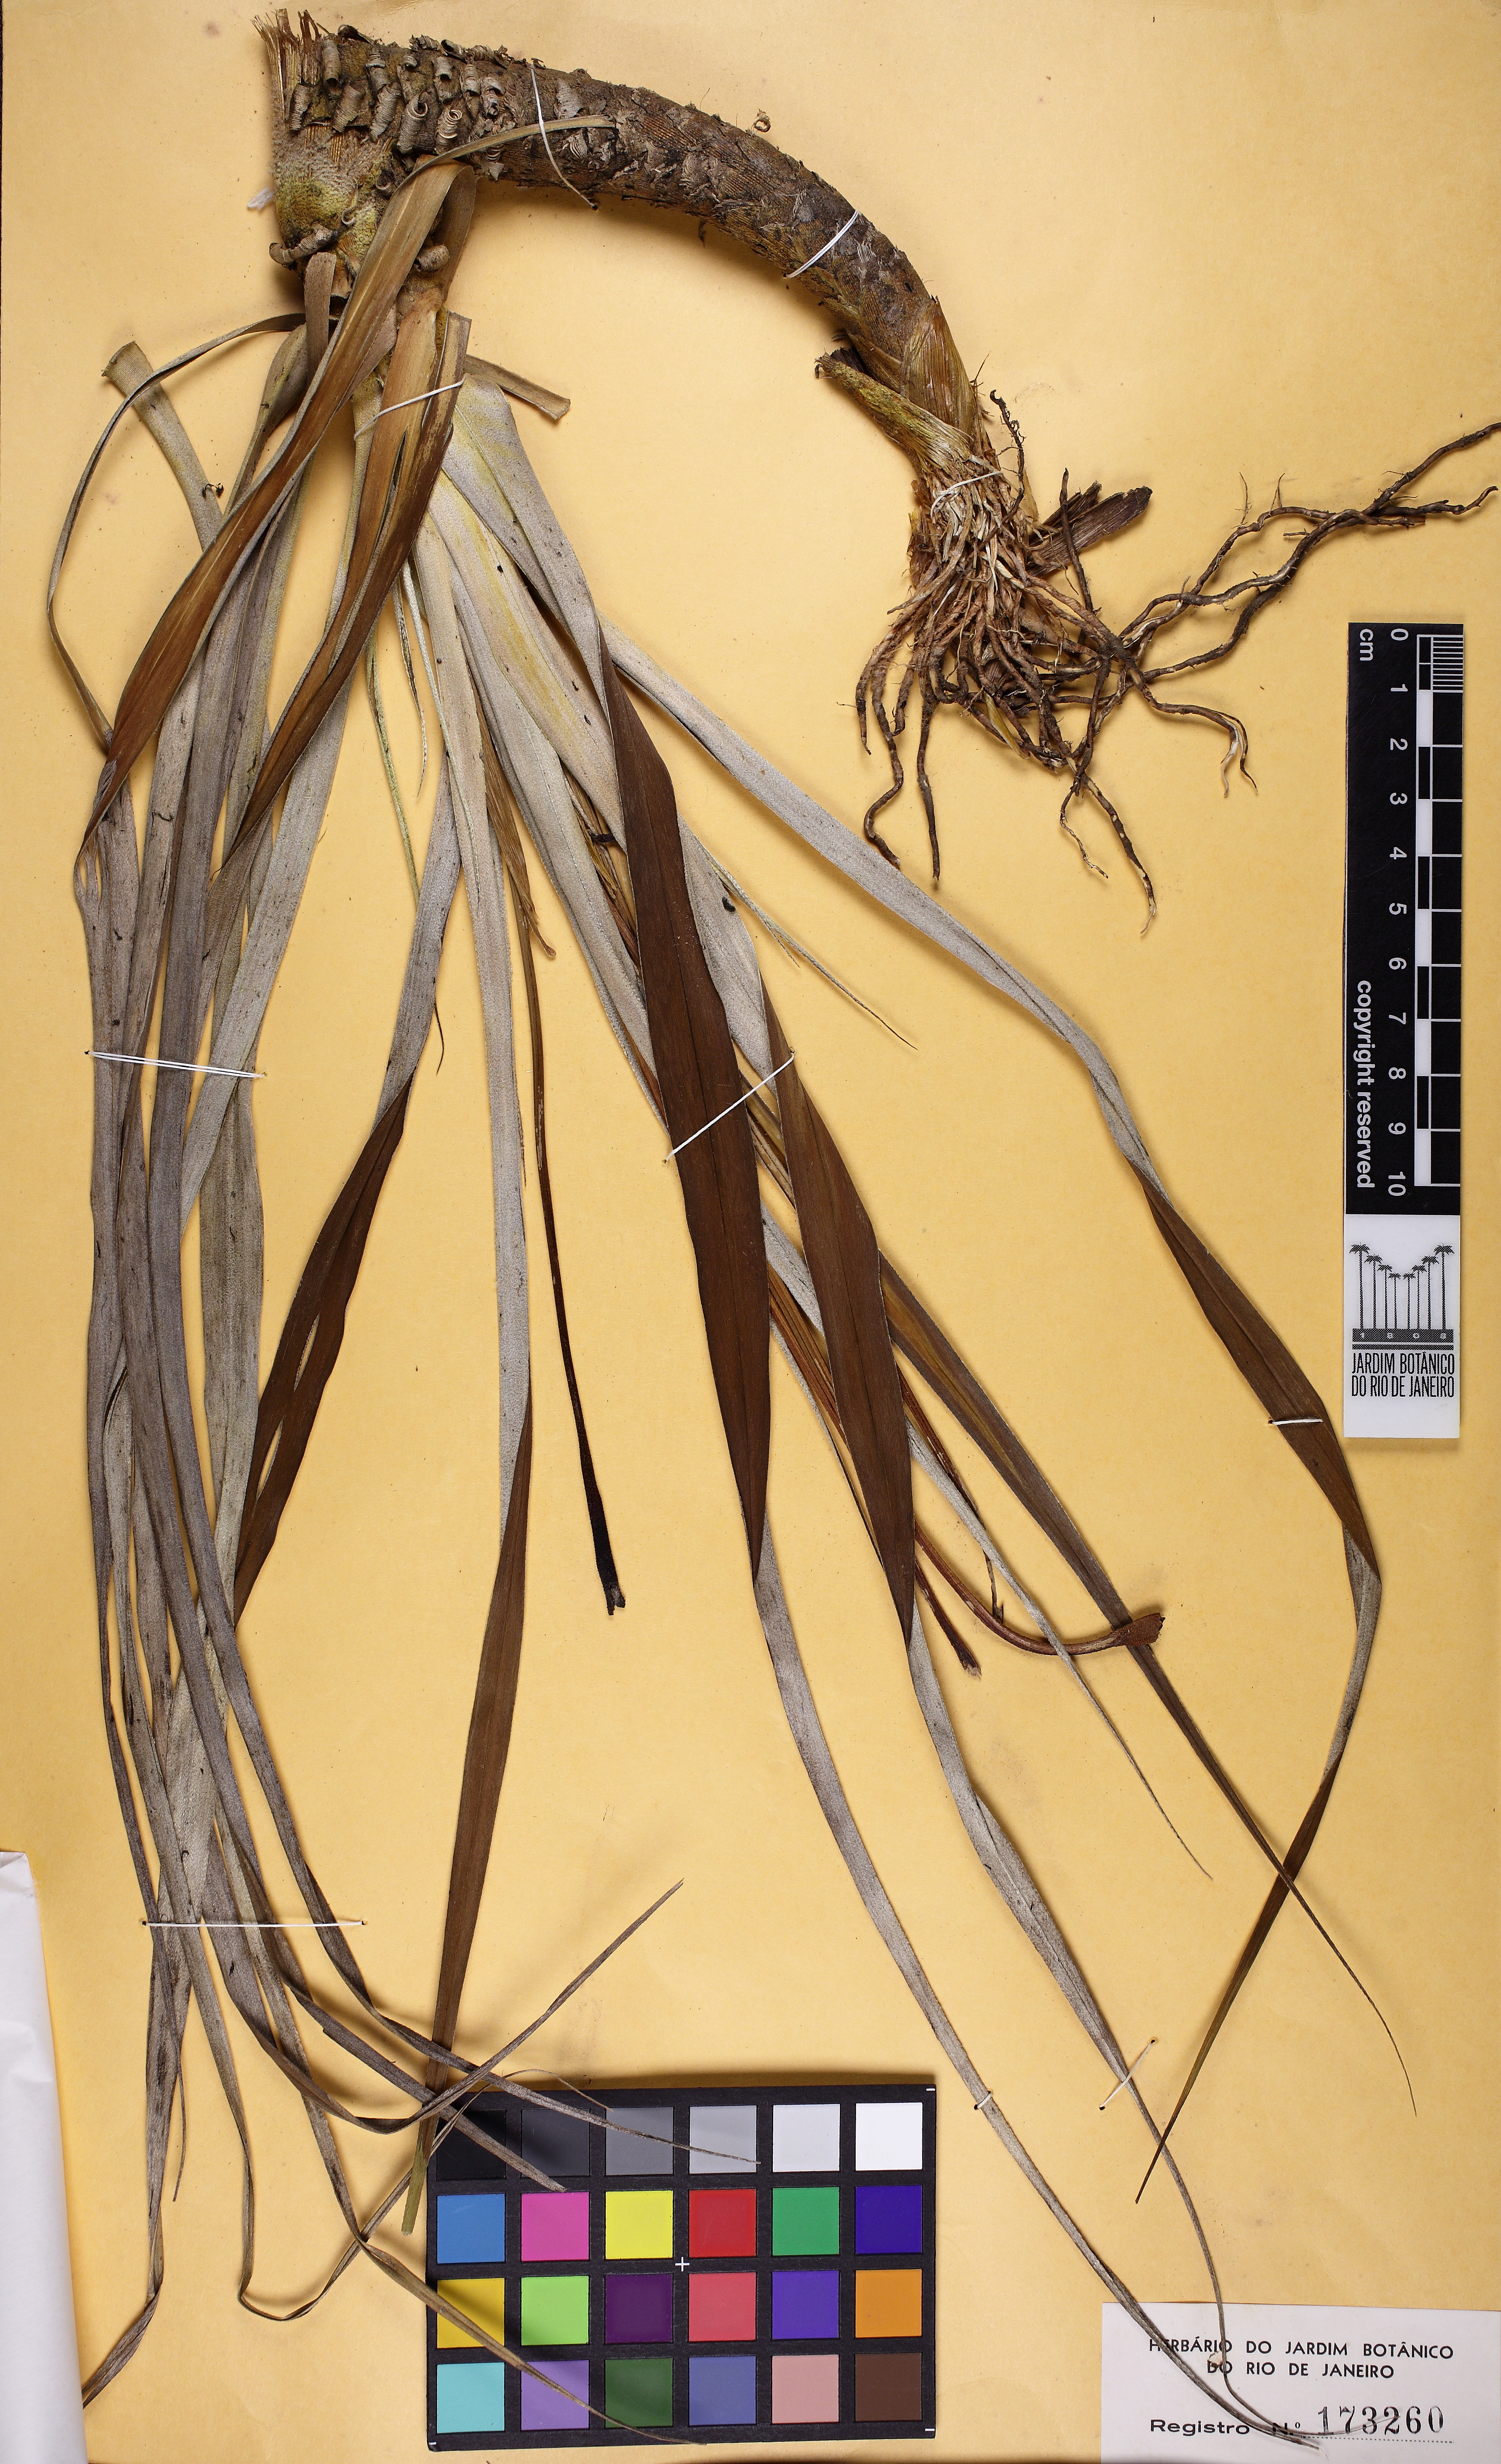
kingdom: Plantae
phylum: Tracheophyta
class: Liliopsida
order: Pandanales
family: Velloziaceae
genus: Vellozia
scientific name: Vellozia tubiflora
